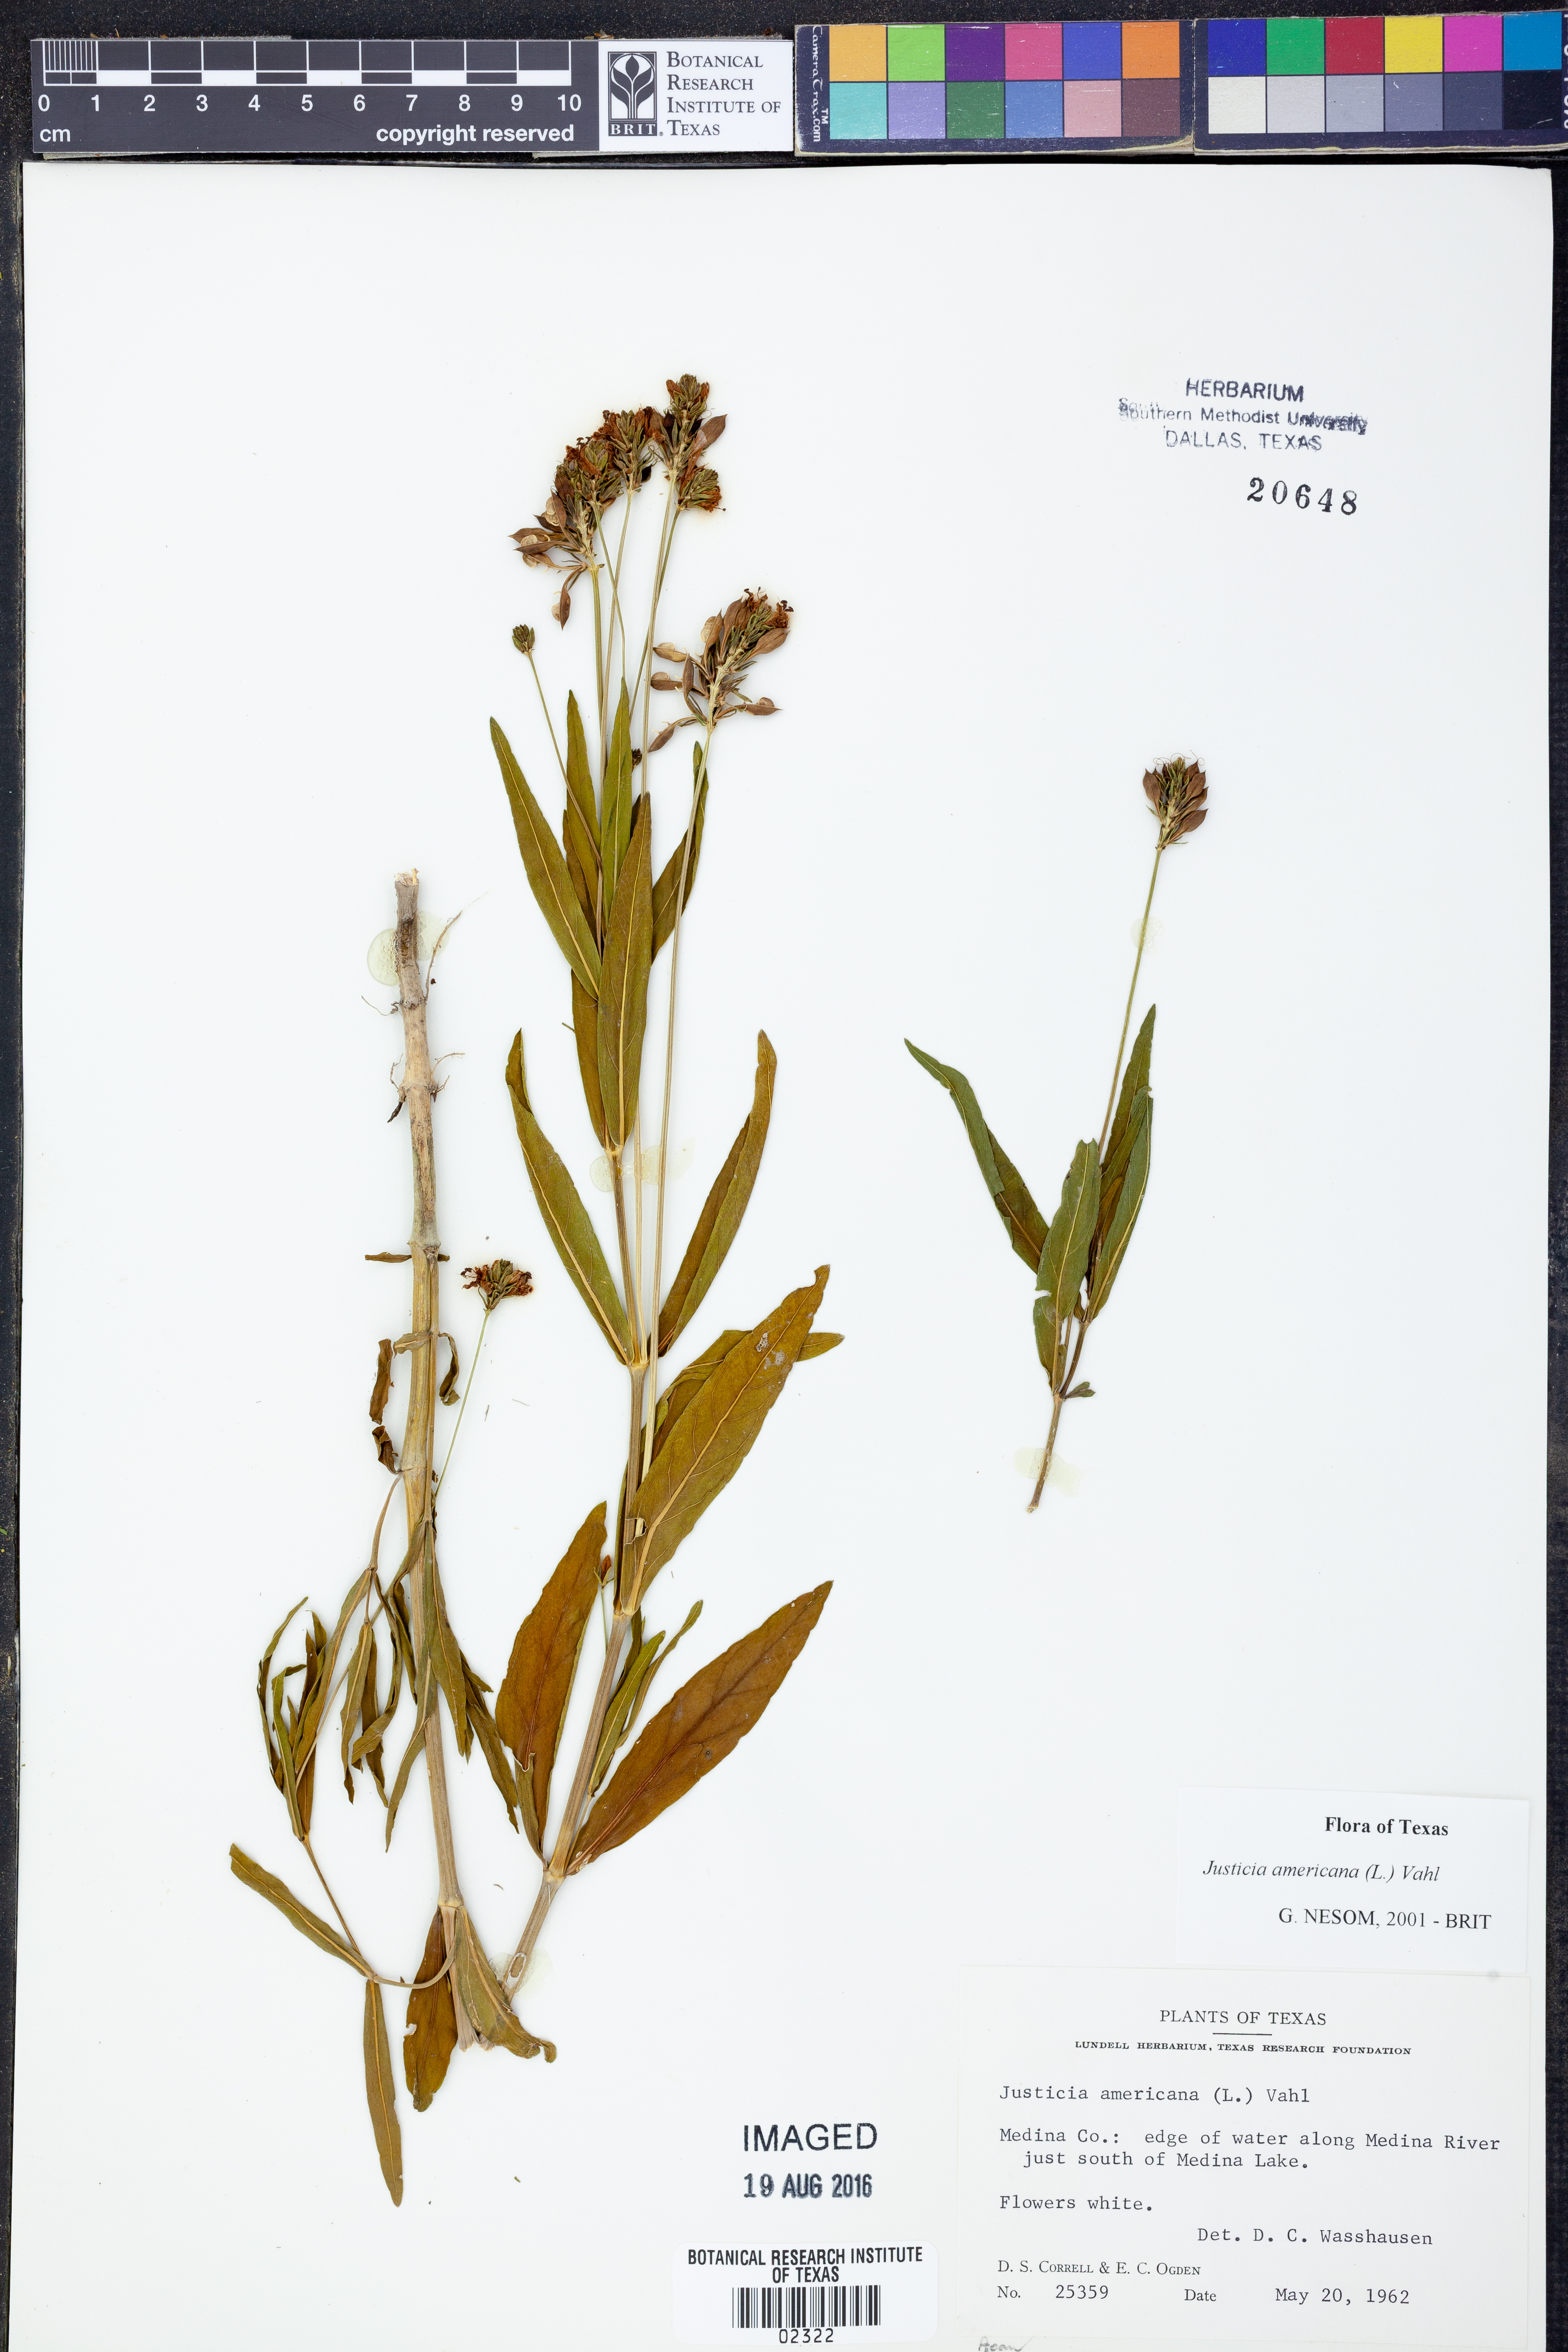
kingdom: Plantae
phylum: Tracheophyta
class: Magnoliopsida
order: Lamiales
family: Acanthaceae
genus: Dianthera
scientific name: Dianthera americana
